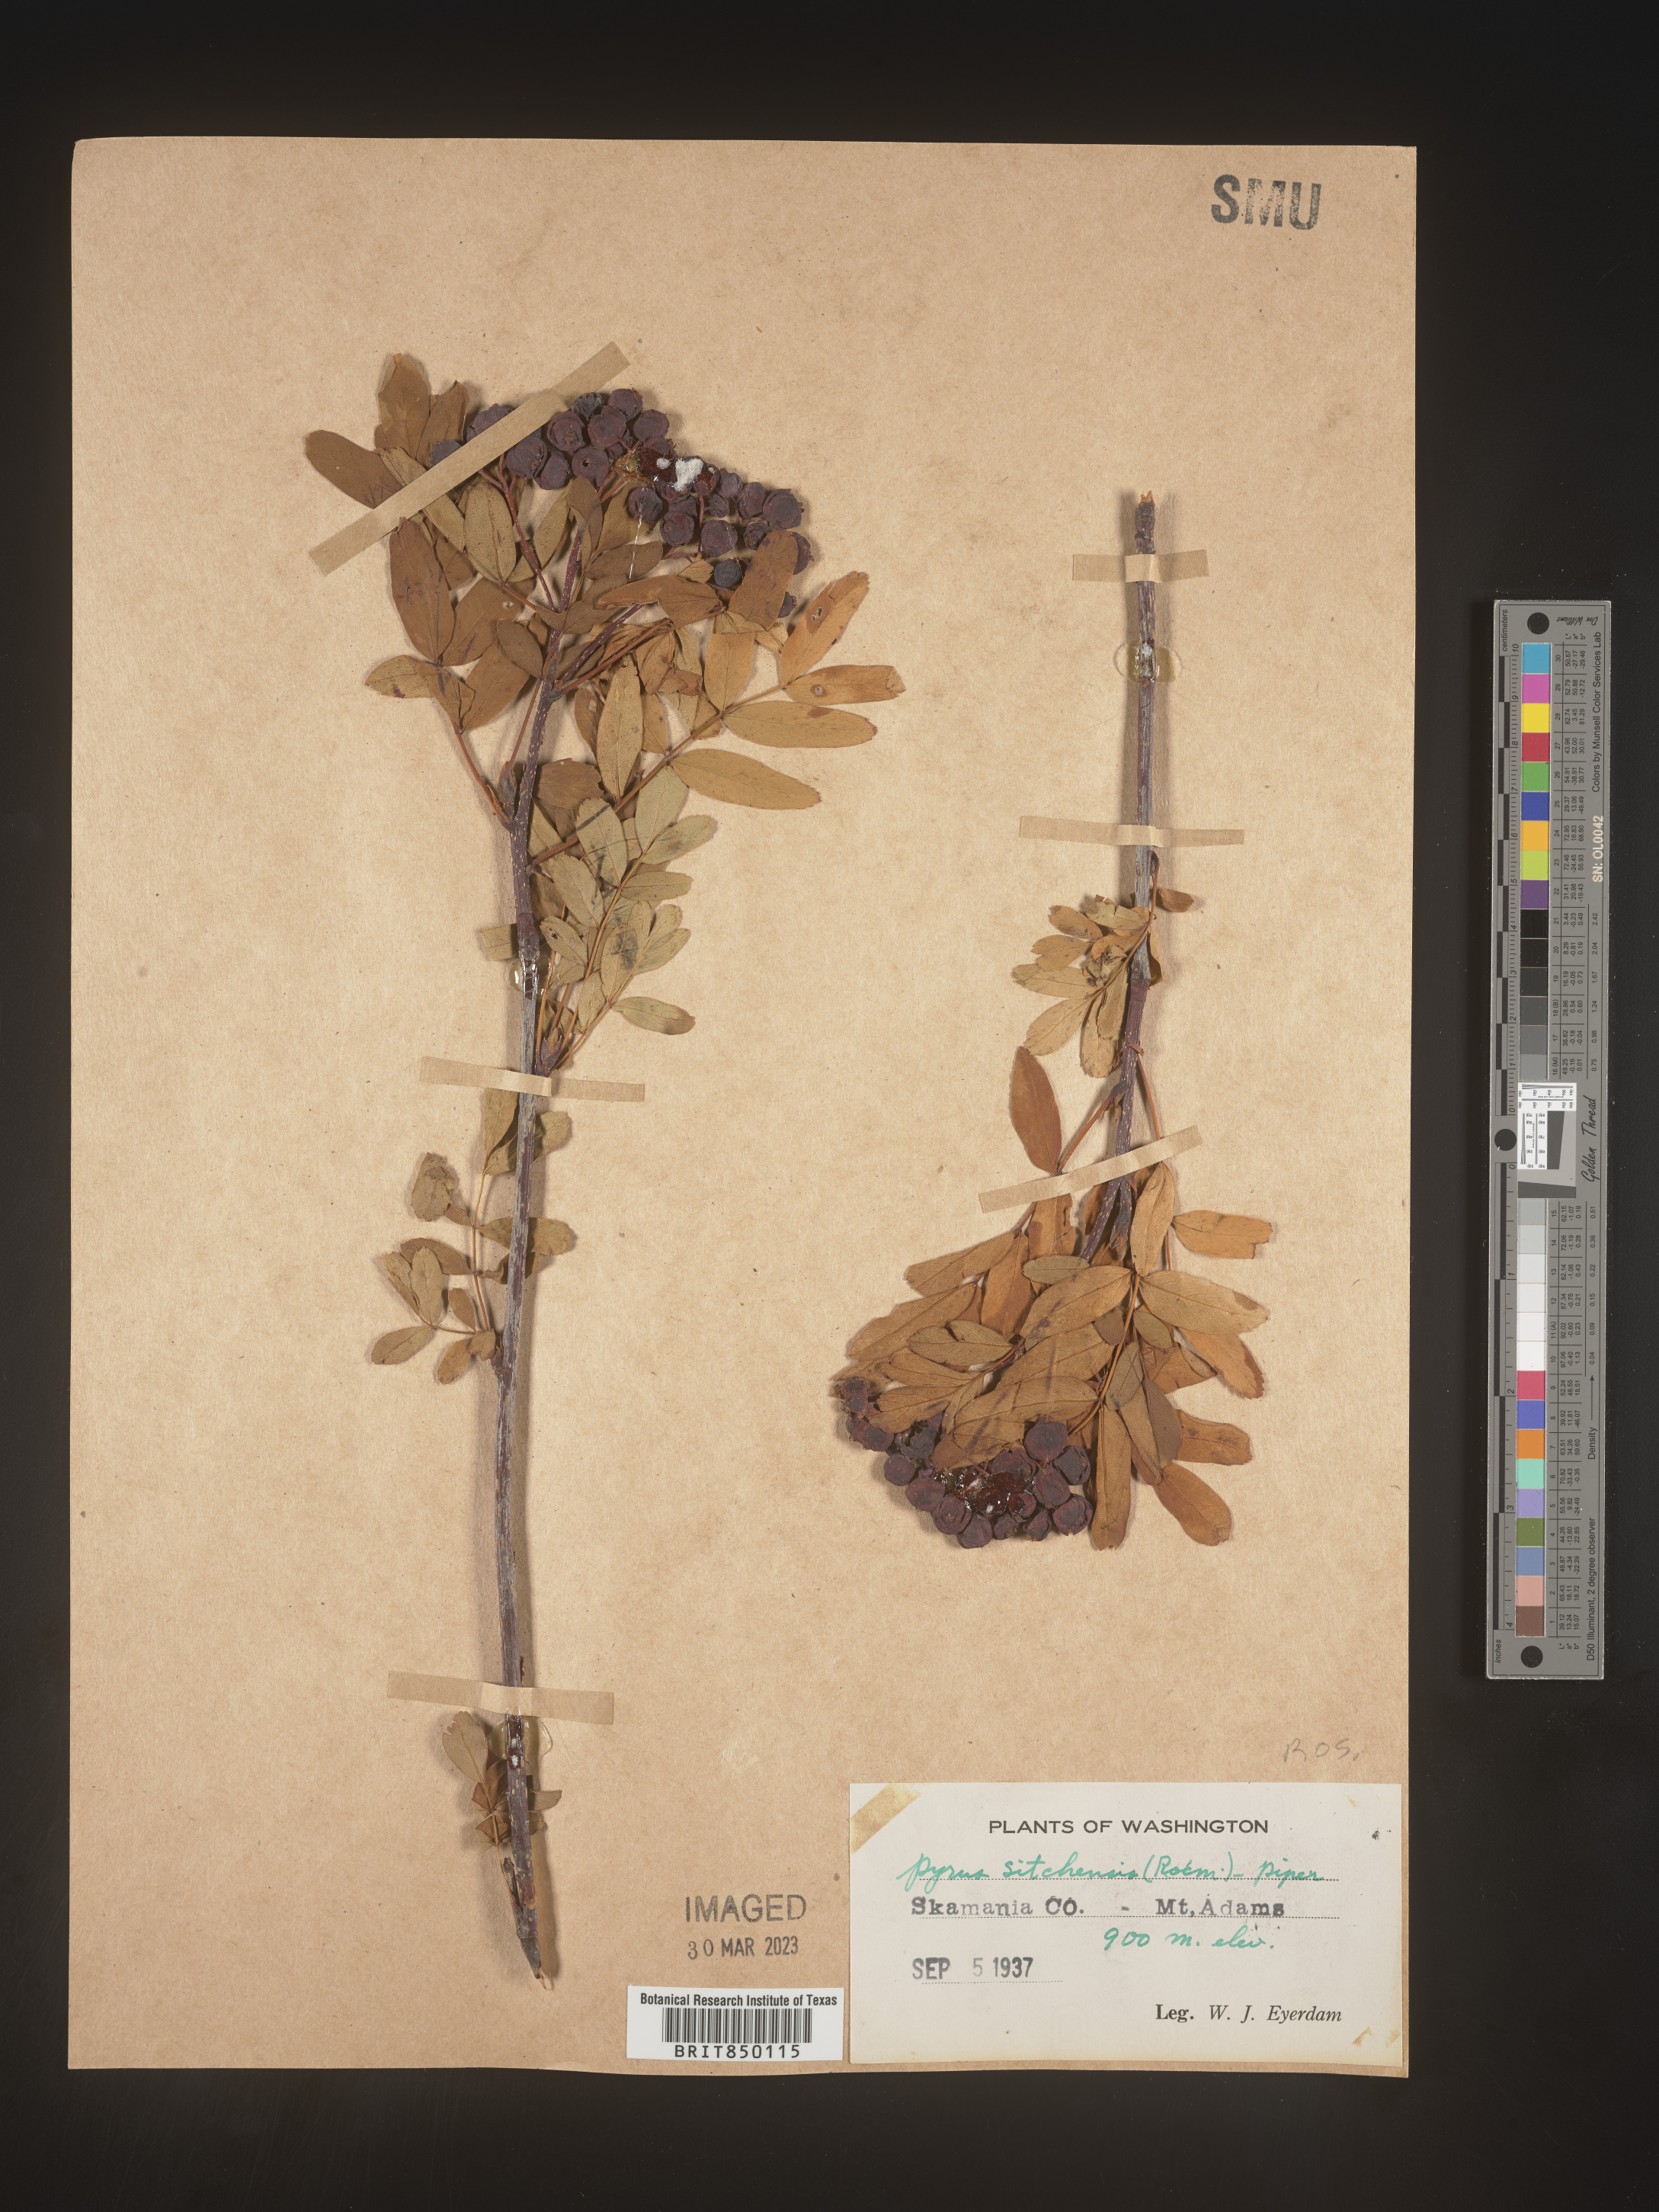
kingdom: Plantae
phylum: Tracheophyta
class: Magnoliopsida
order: Rosales
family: Rosaceae
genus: Sorbus
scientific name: Sorbus
